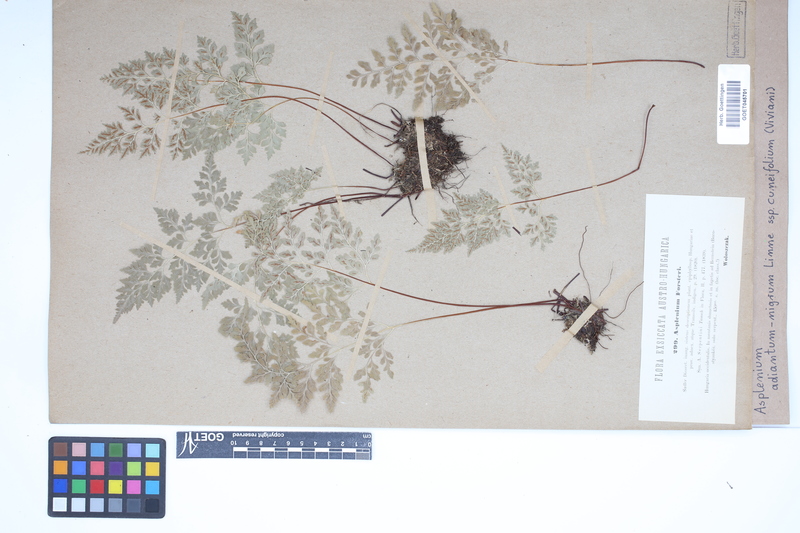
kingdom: Plantae
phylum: Tracheophyta
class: Polypodiopsida
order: Polypodiales
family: Aspleniaceae
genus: Asplenium
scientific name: Asplenium cuneifolium
